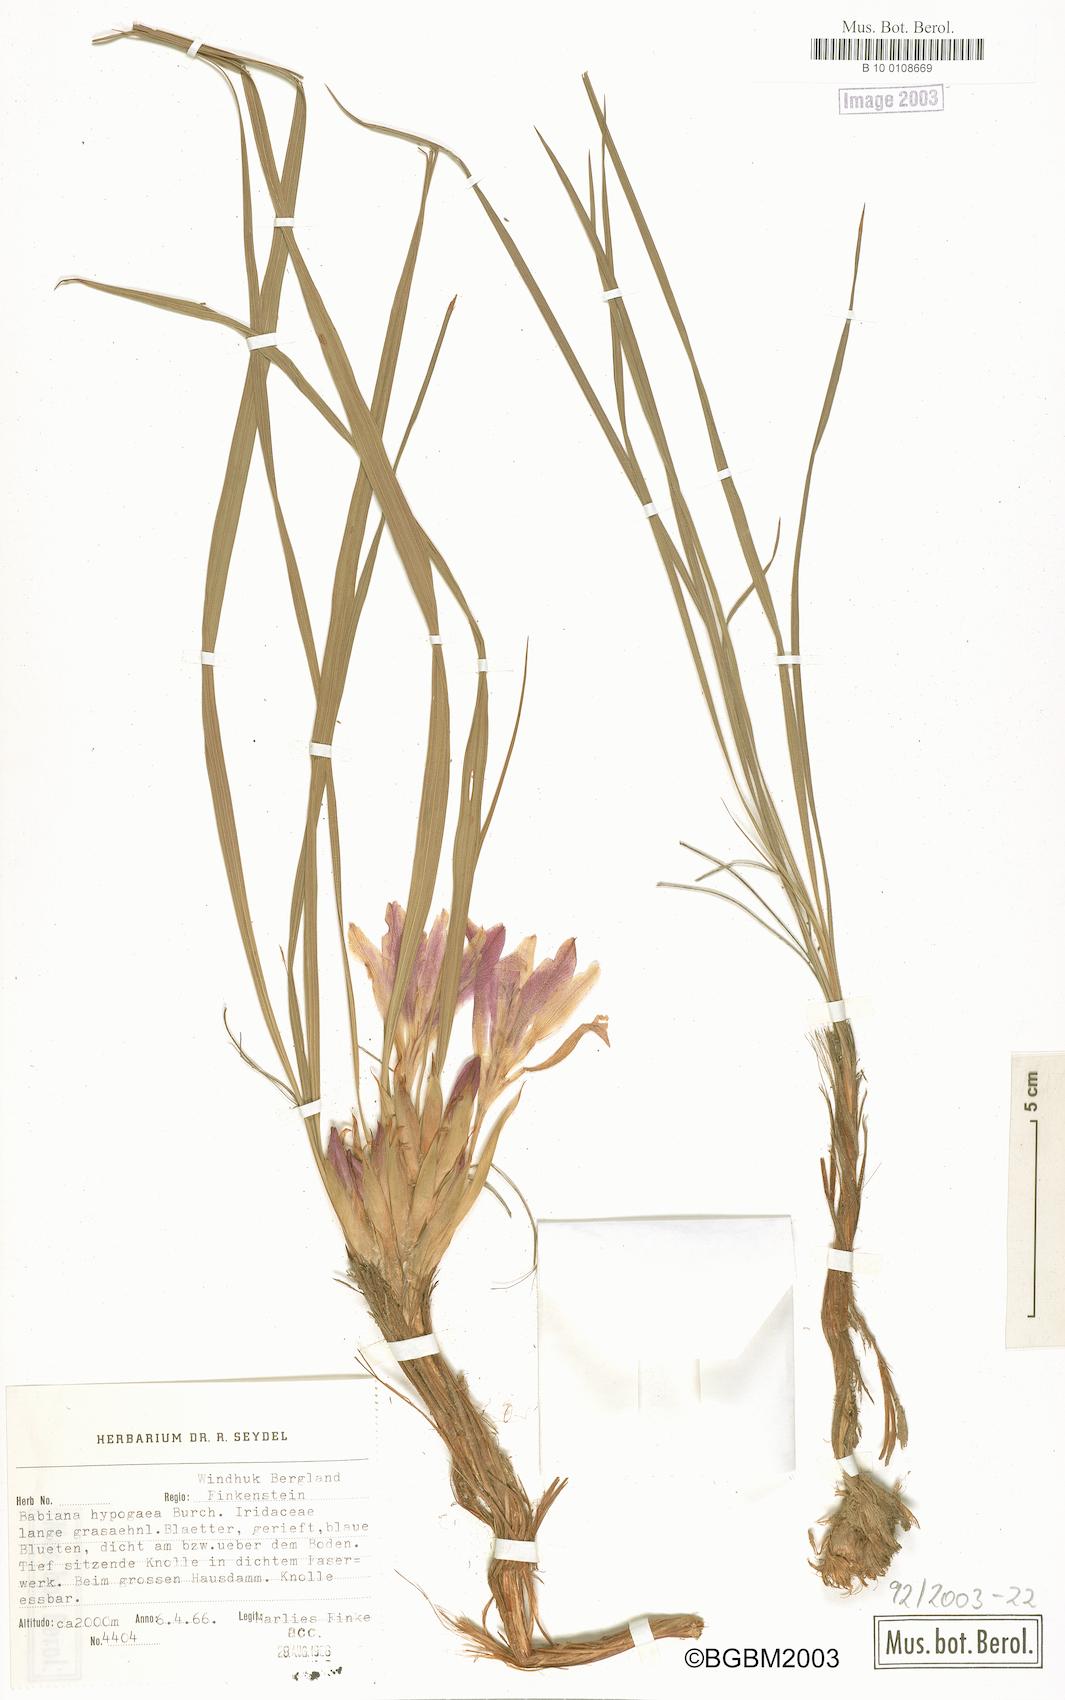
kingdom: Plantae
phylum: Tracheophyta
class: Liliopsida
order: Asparagales
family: Iridaceae
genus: Babiana
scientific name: Babiana hypogaea
